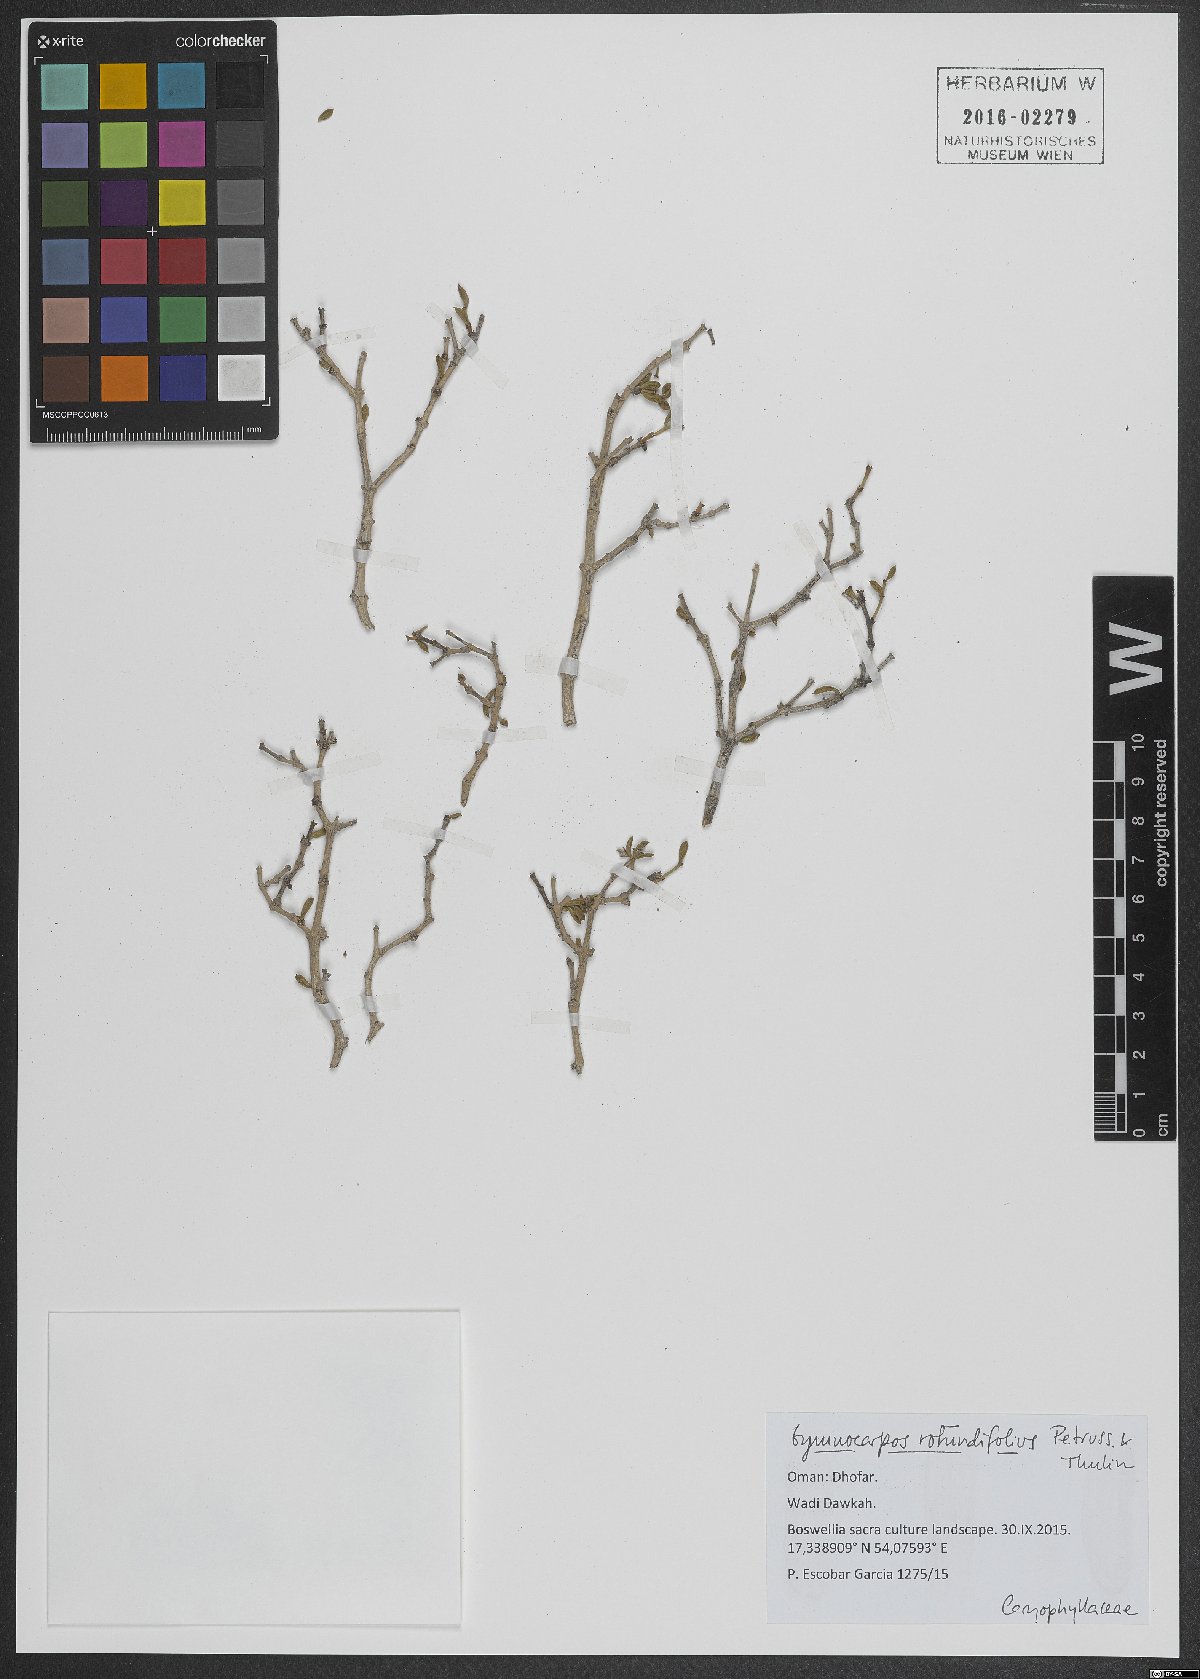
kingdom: Plantae
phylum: Tracheophyta
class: Magnoliopsida
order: Caryophyllales
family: Caryophyllaceae
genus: Gymnocarpos
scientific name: Gymnocarpos rotundifolius
